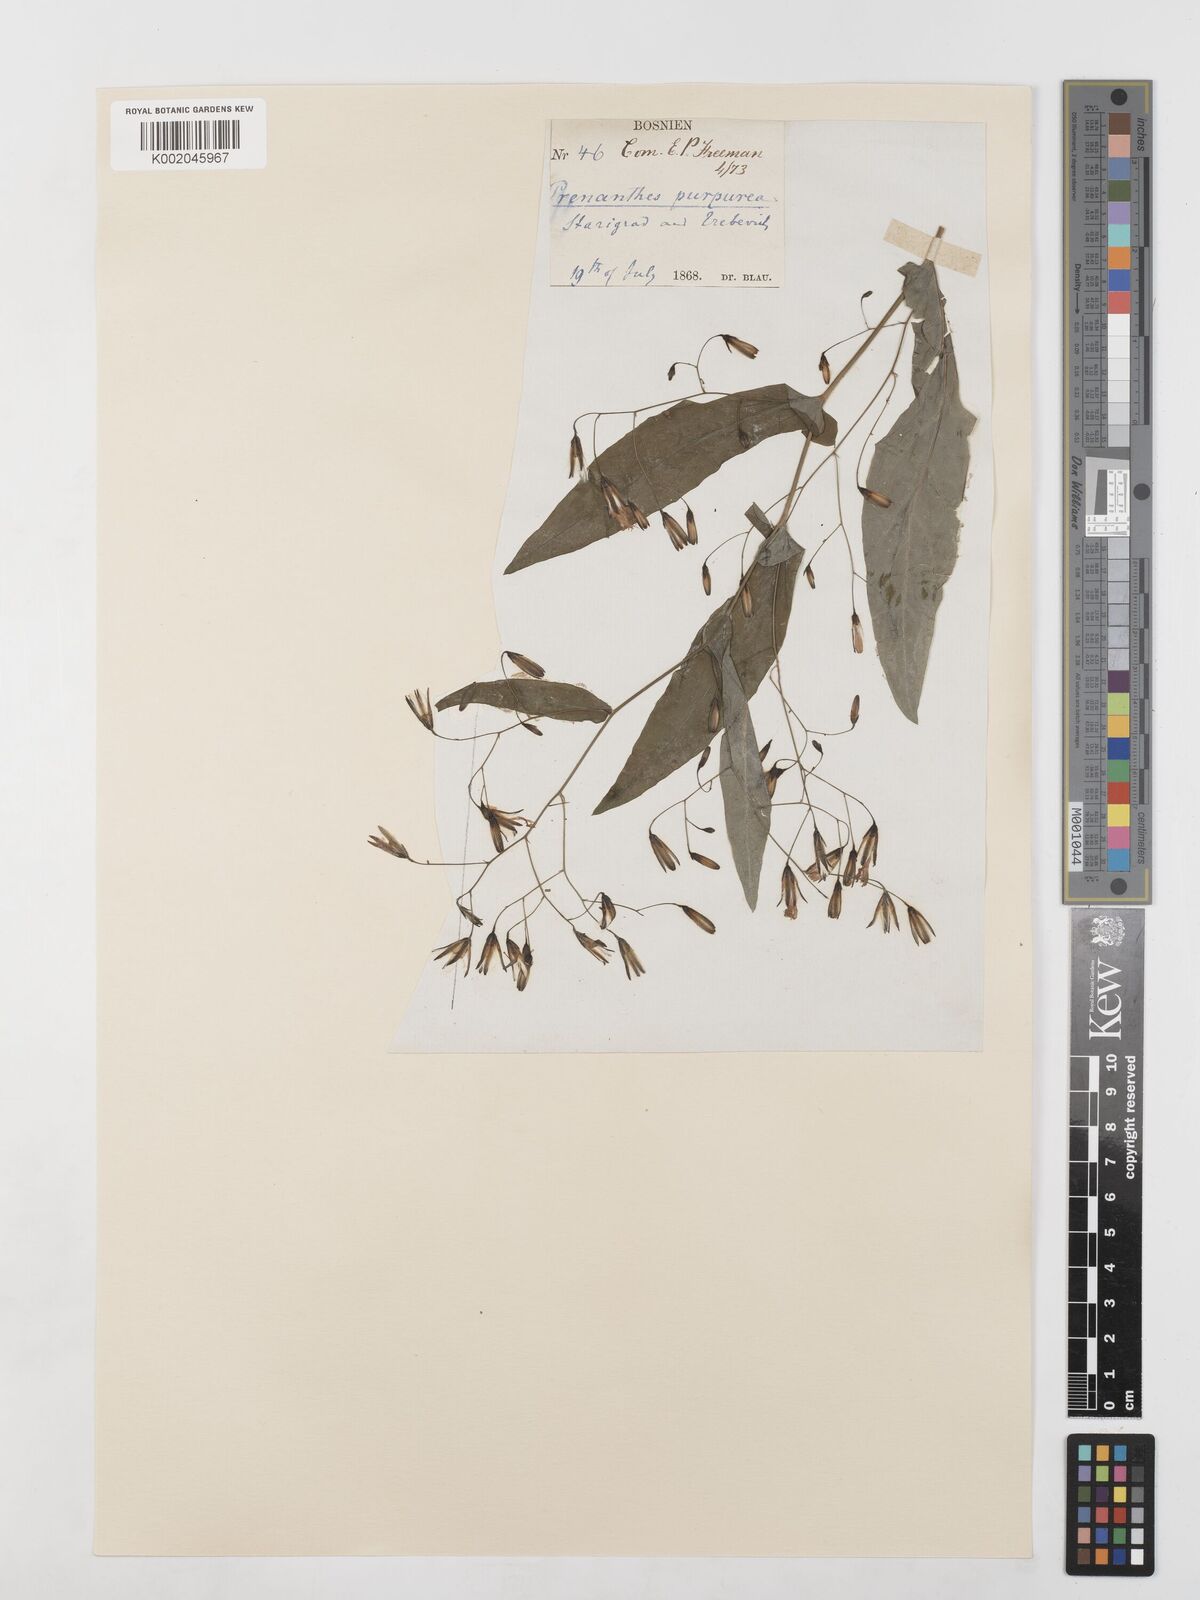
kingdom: Plantae
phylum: Tracheophyta
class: Magnoliopsida
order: Asterales
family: Asteraceae
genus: Prenanthes
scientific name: Prenanthes purpurea
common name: Purple lettuce
